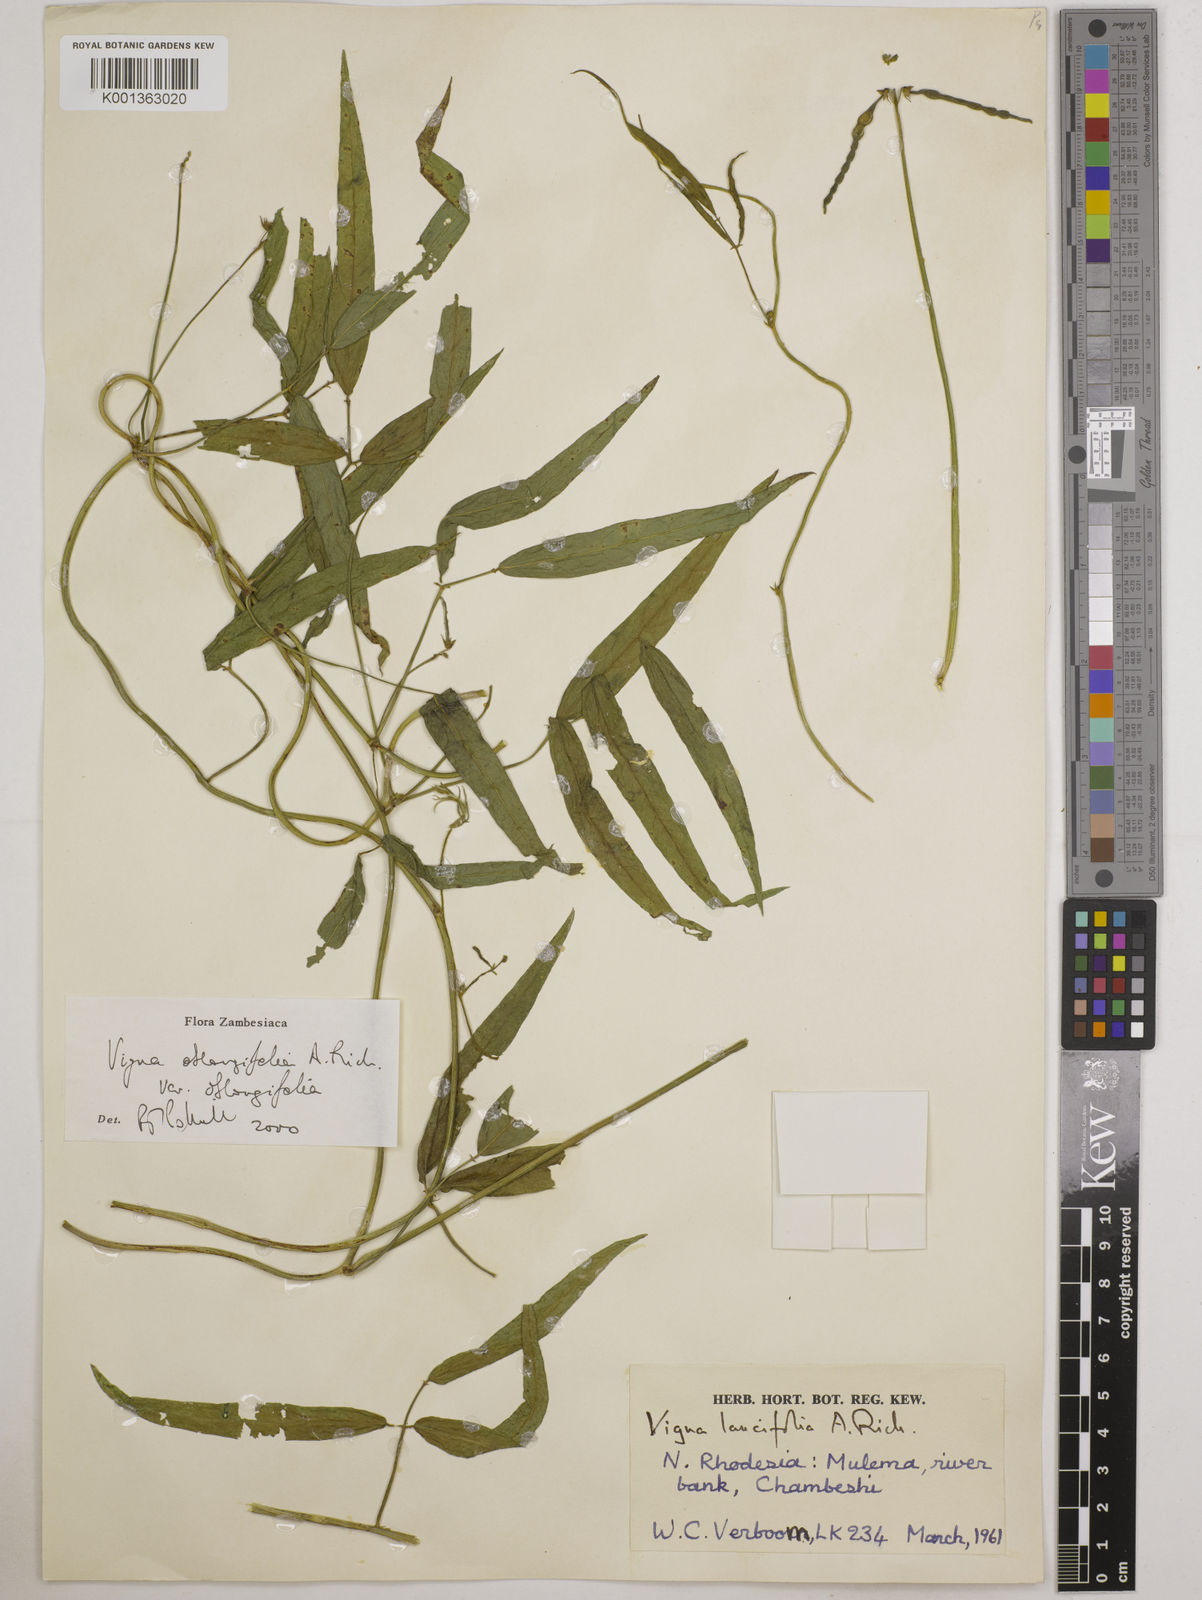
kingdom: Plantae
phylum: Tracheophyta
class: Magnoliopsida
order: Fabales
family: Fabaceae
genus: Vigna
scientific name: Vigna oblongifolia
